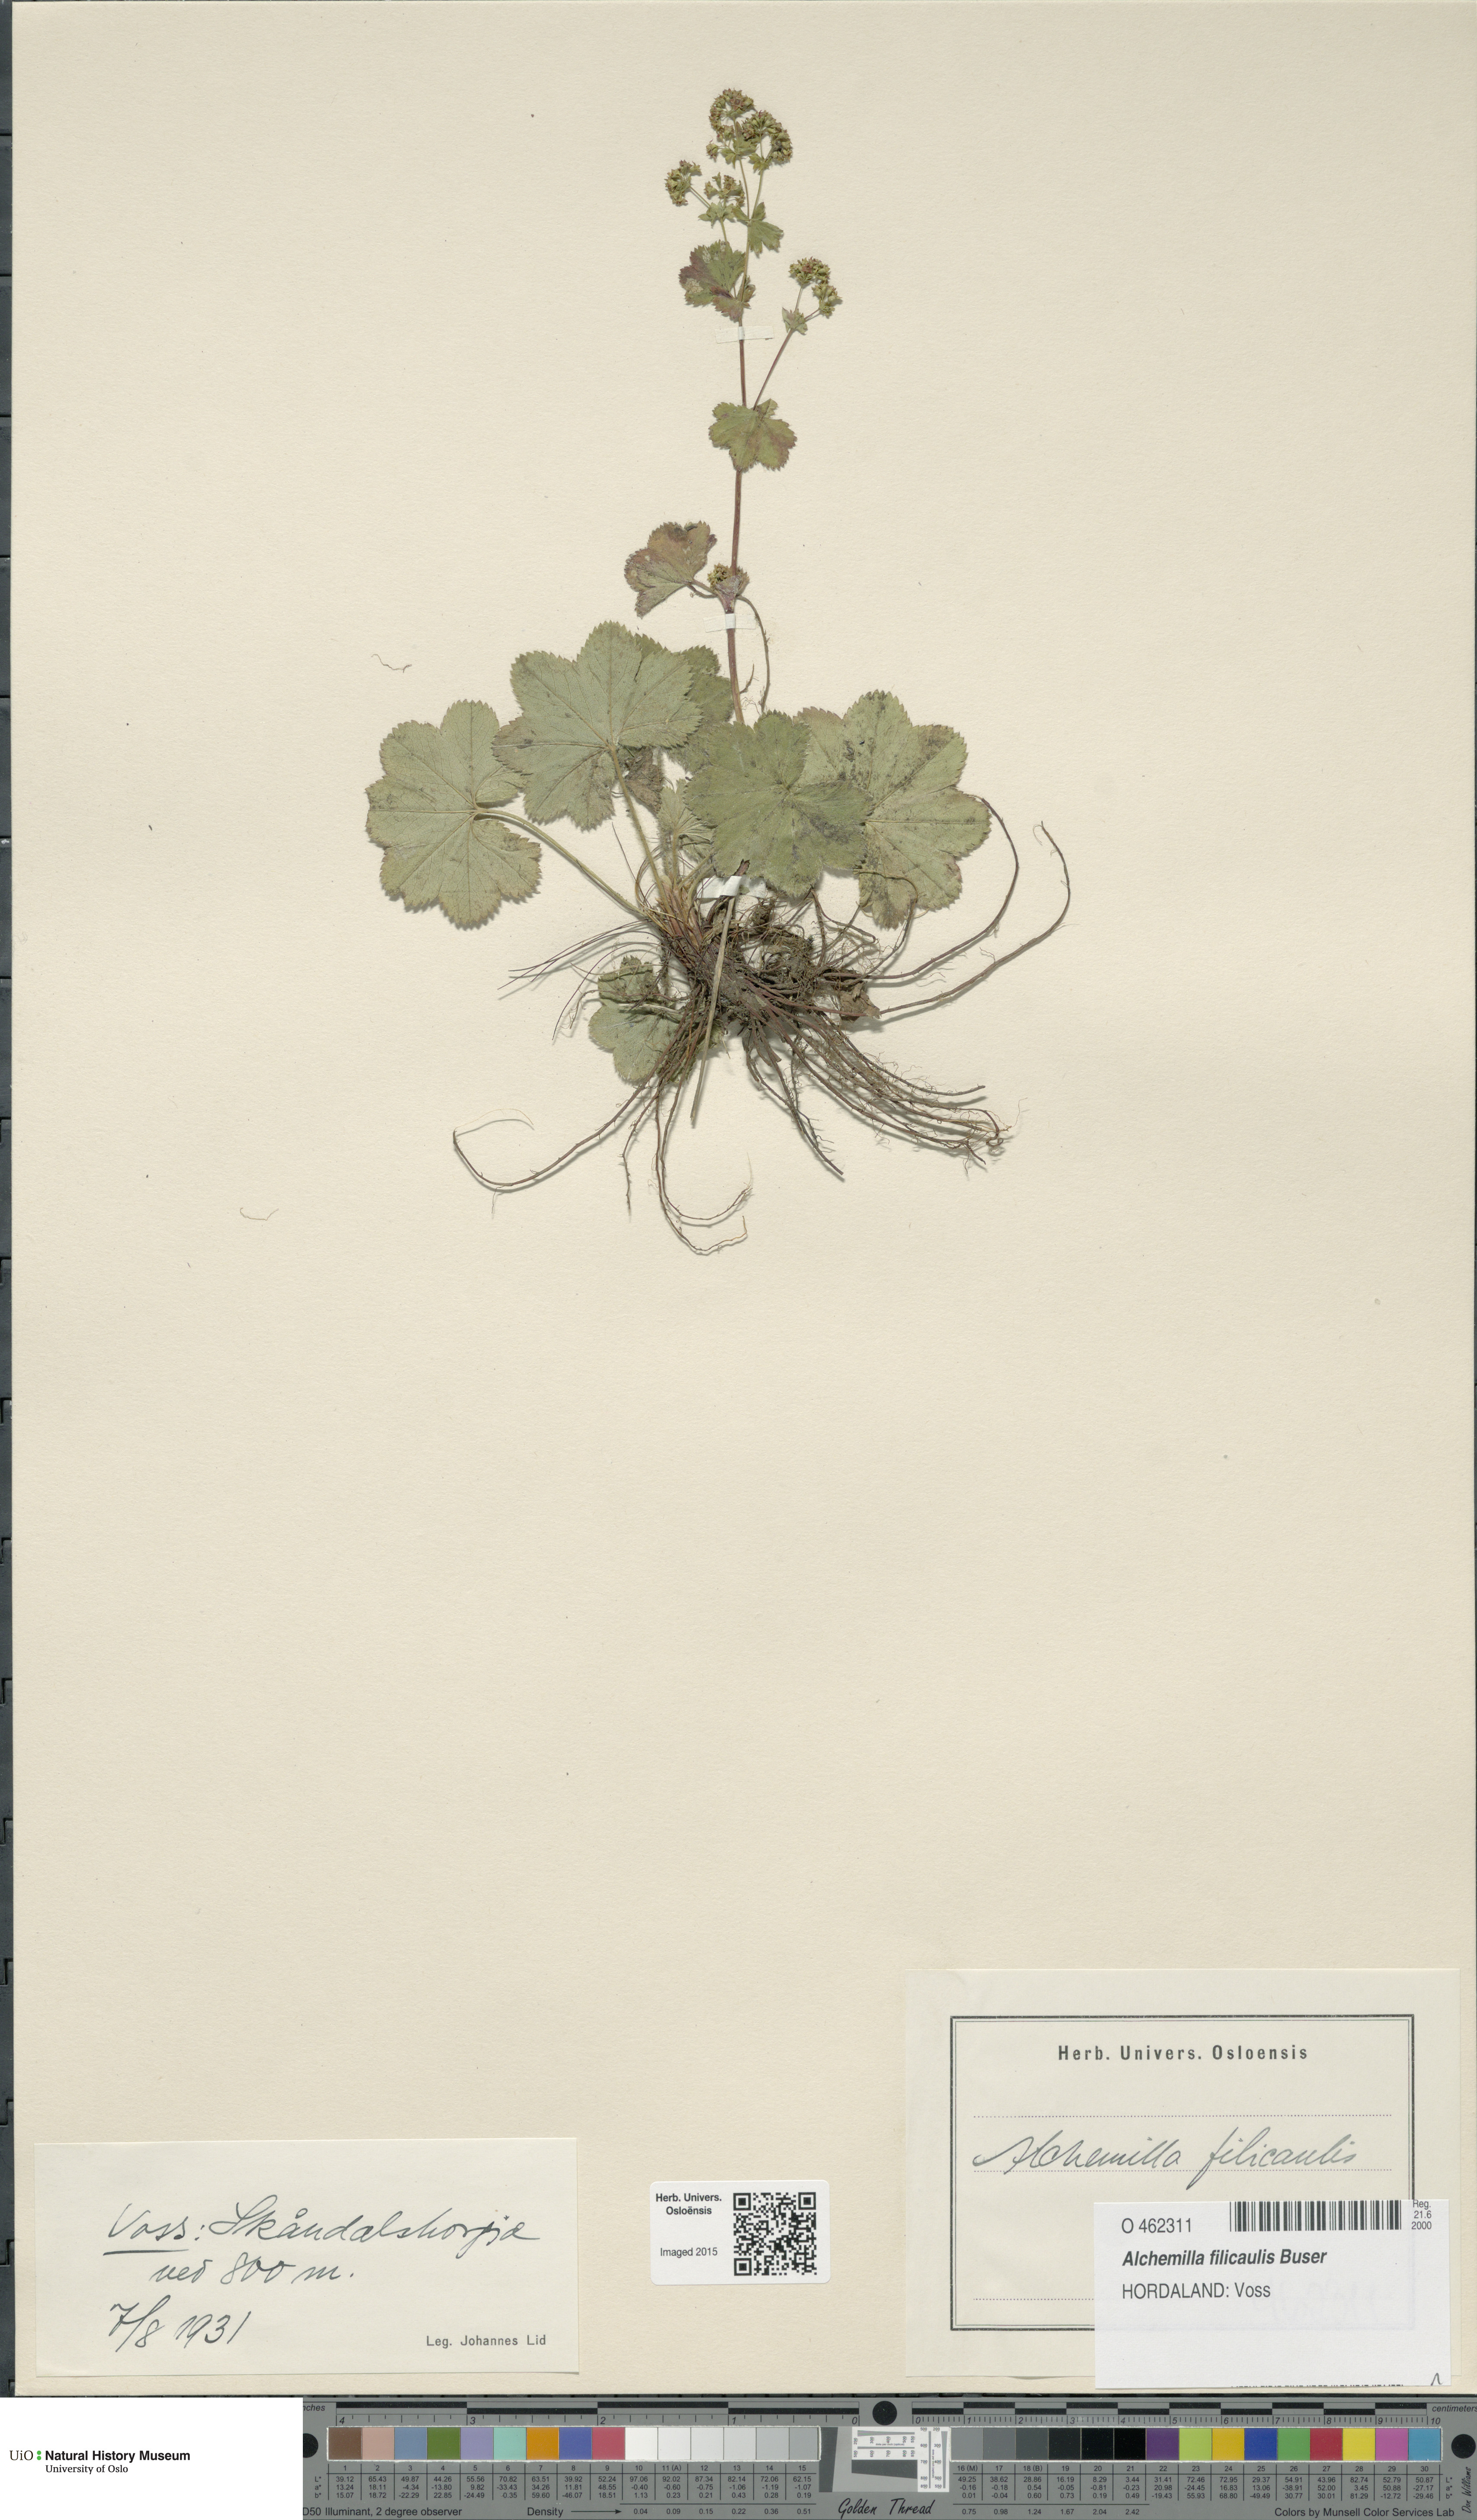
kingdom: Plantae
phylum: Tracheophyta
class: Magnoliopsida
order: Rosales
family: Rosaceae
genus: Alchemilla
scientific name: Alchemilla filicaulis
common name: Hairy lady's-mantle
